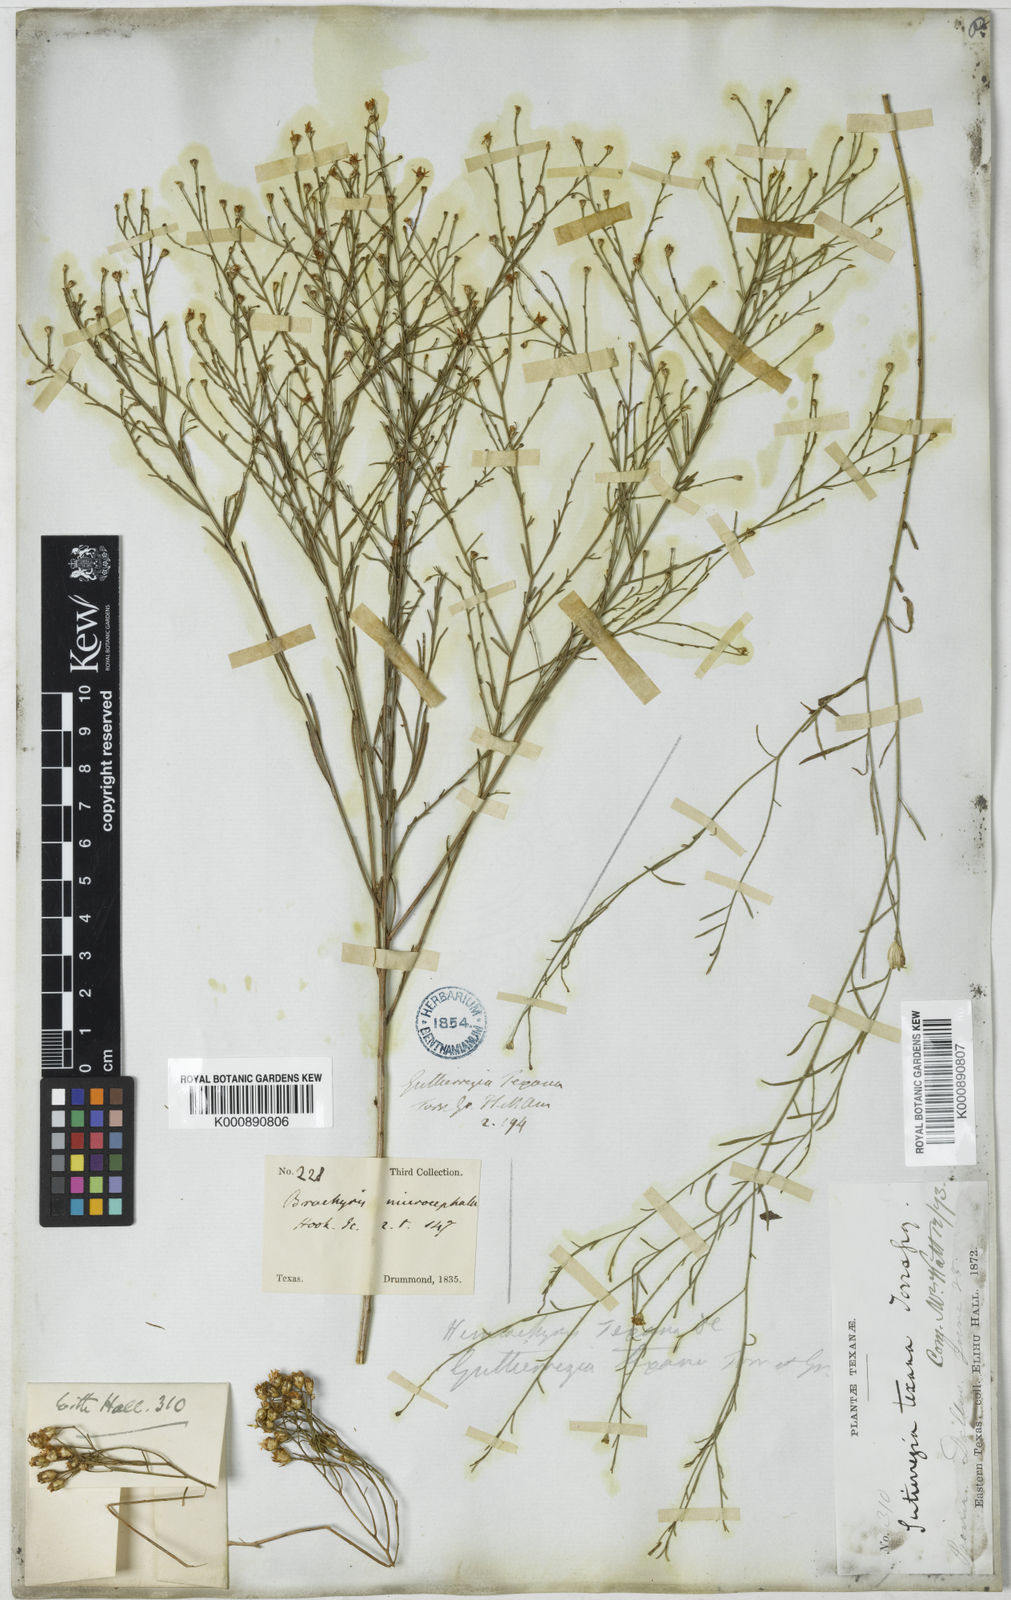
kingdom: Plantae
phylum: Tracheophyta
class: Magnoliopsida
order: Asterales
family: Asteraceae
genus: Gutierrezia
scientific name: Gutierrezia texana
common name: Texas snakeweed
